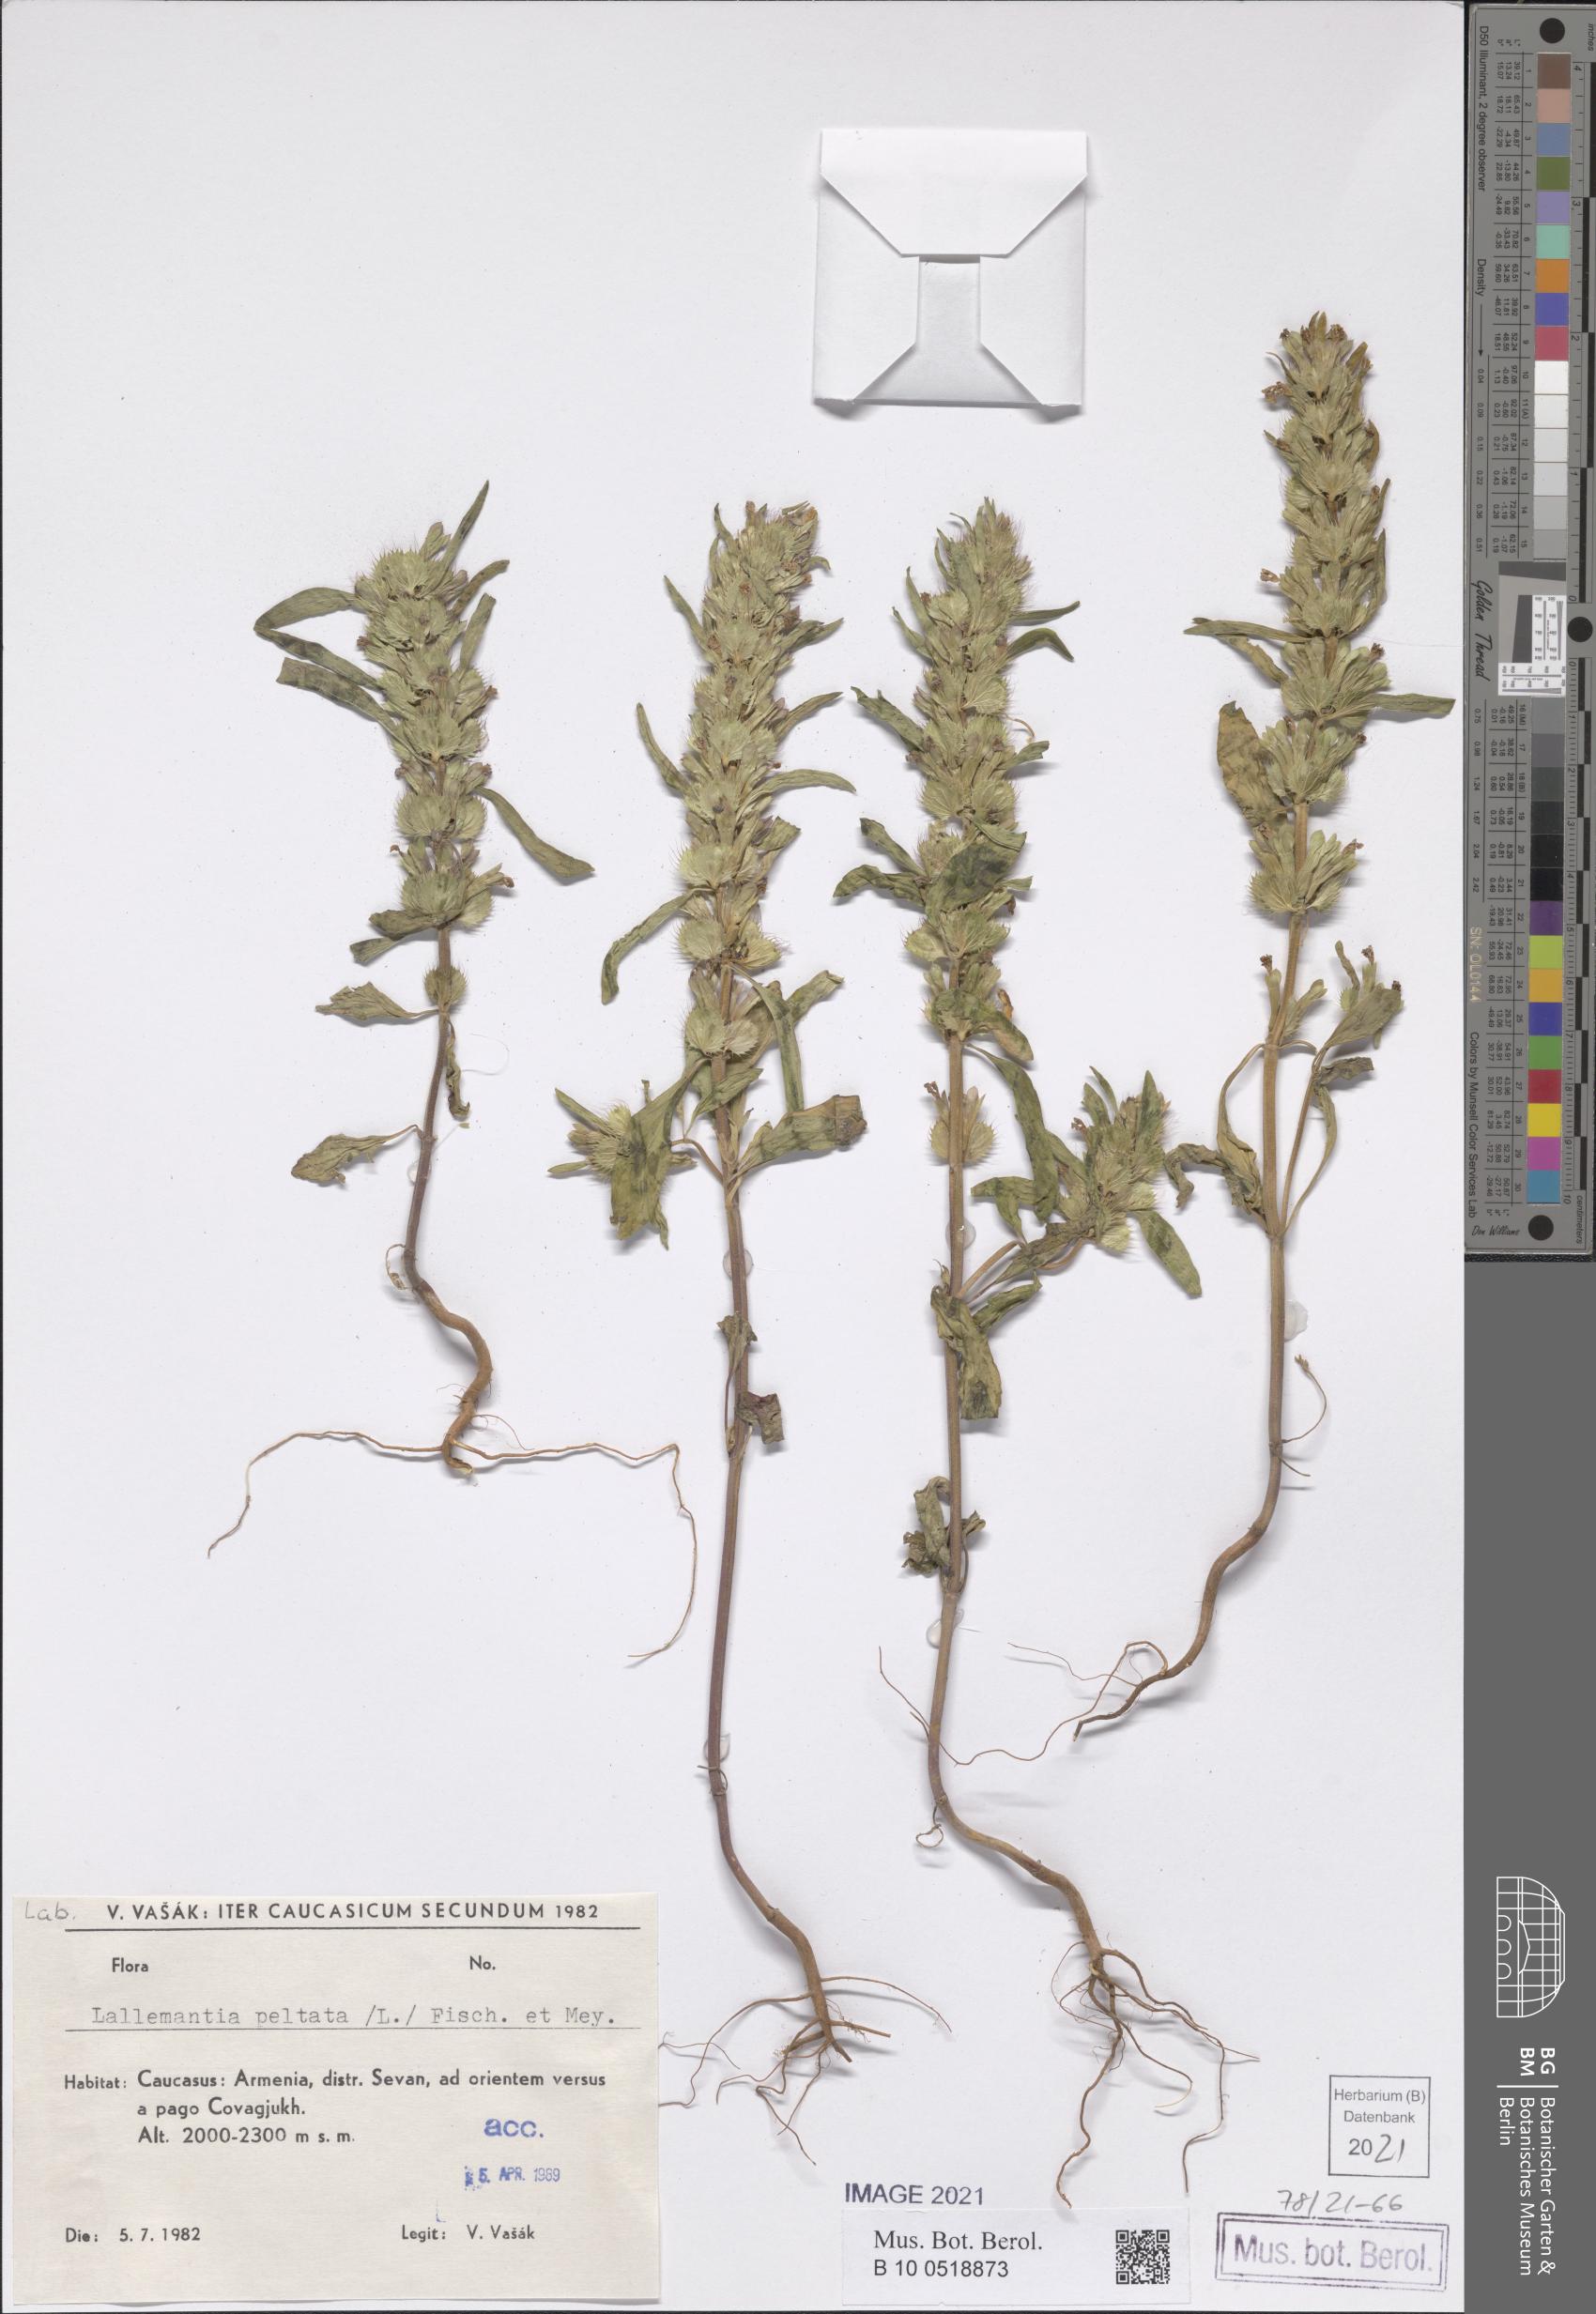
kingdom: Plantae
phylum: Tracheophyta
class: Magnoliopsida
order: Lamiales
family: Lamiaceae
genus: Lallemantia
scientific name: Lallemantia peltata
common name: Lion's heart
